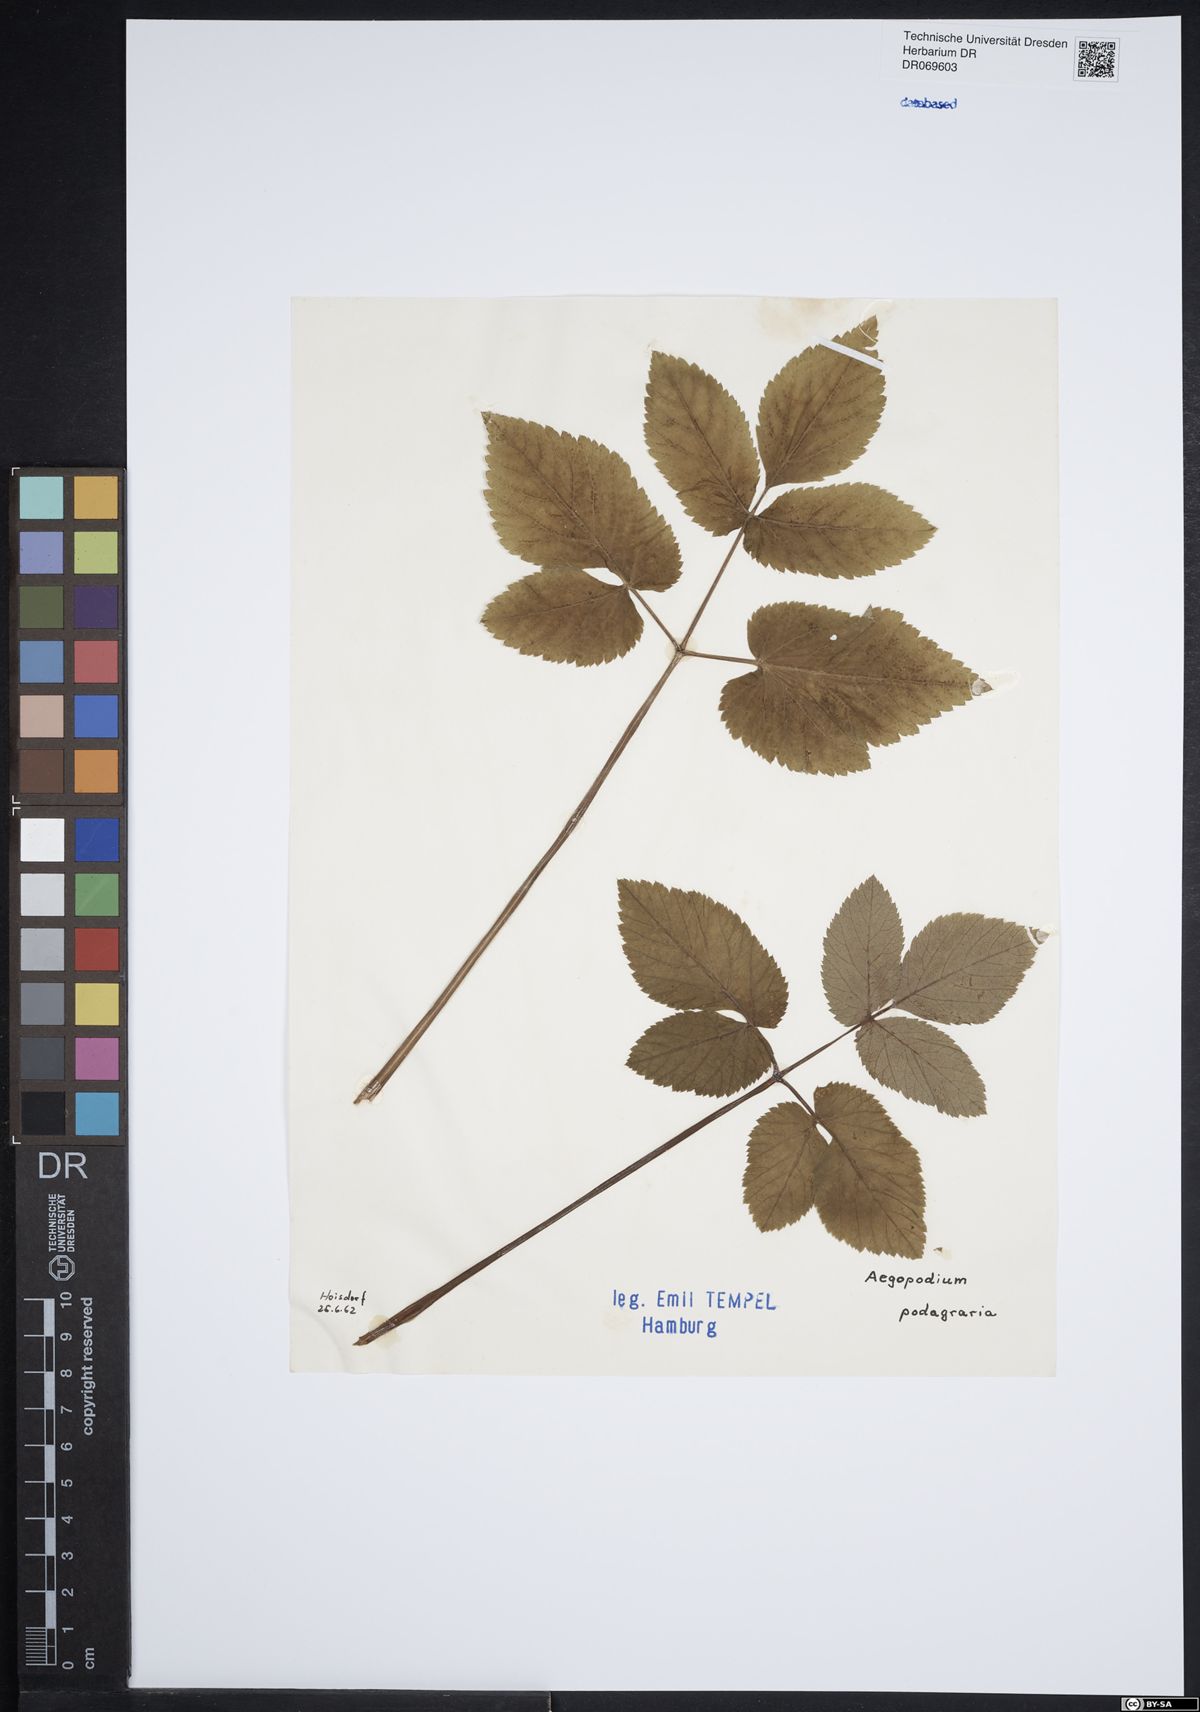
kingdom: Plantae
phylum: Tracheophyta
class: Magnoliopsida
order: Apiales
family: Apiaceae
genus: Aegopodium
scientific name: Aegopodium podagraria
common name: Ground-elder
